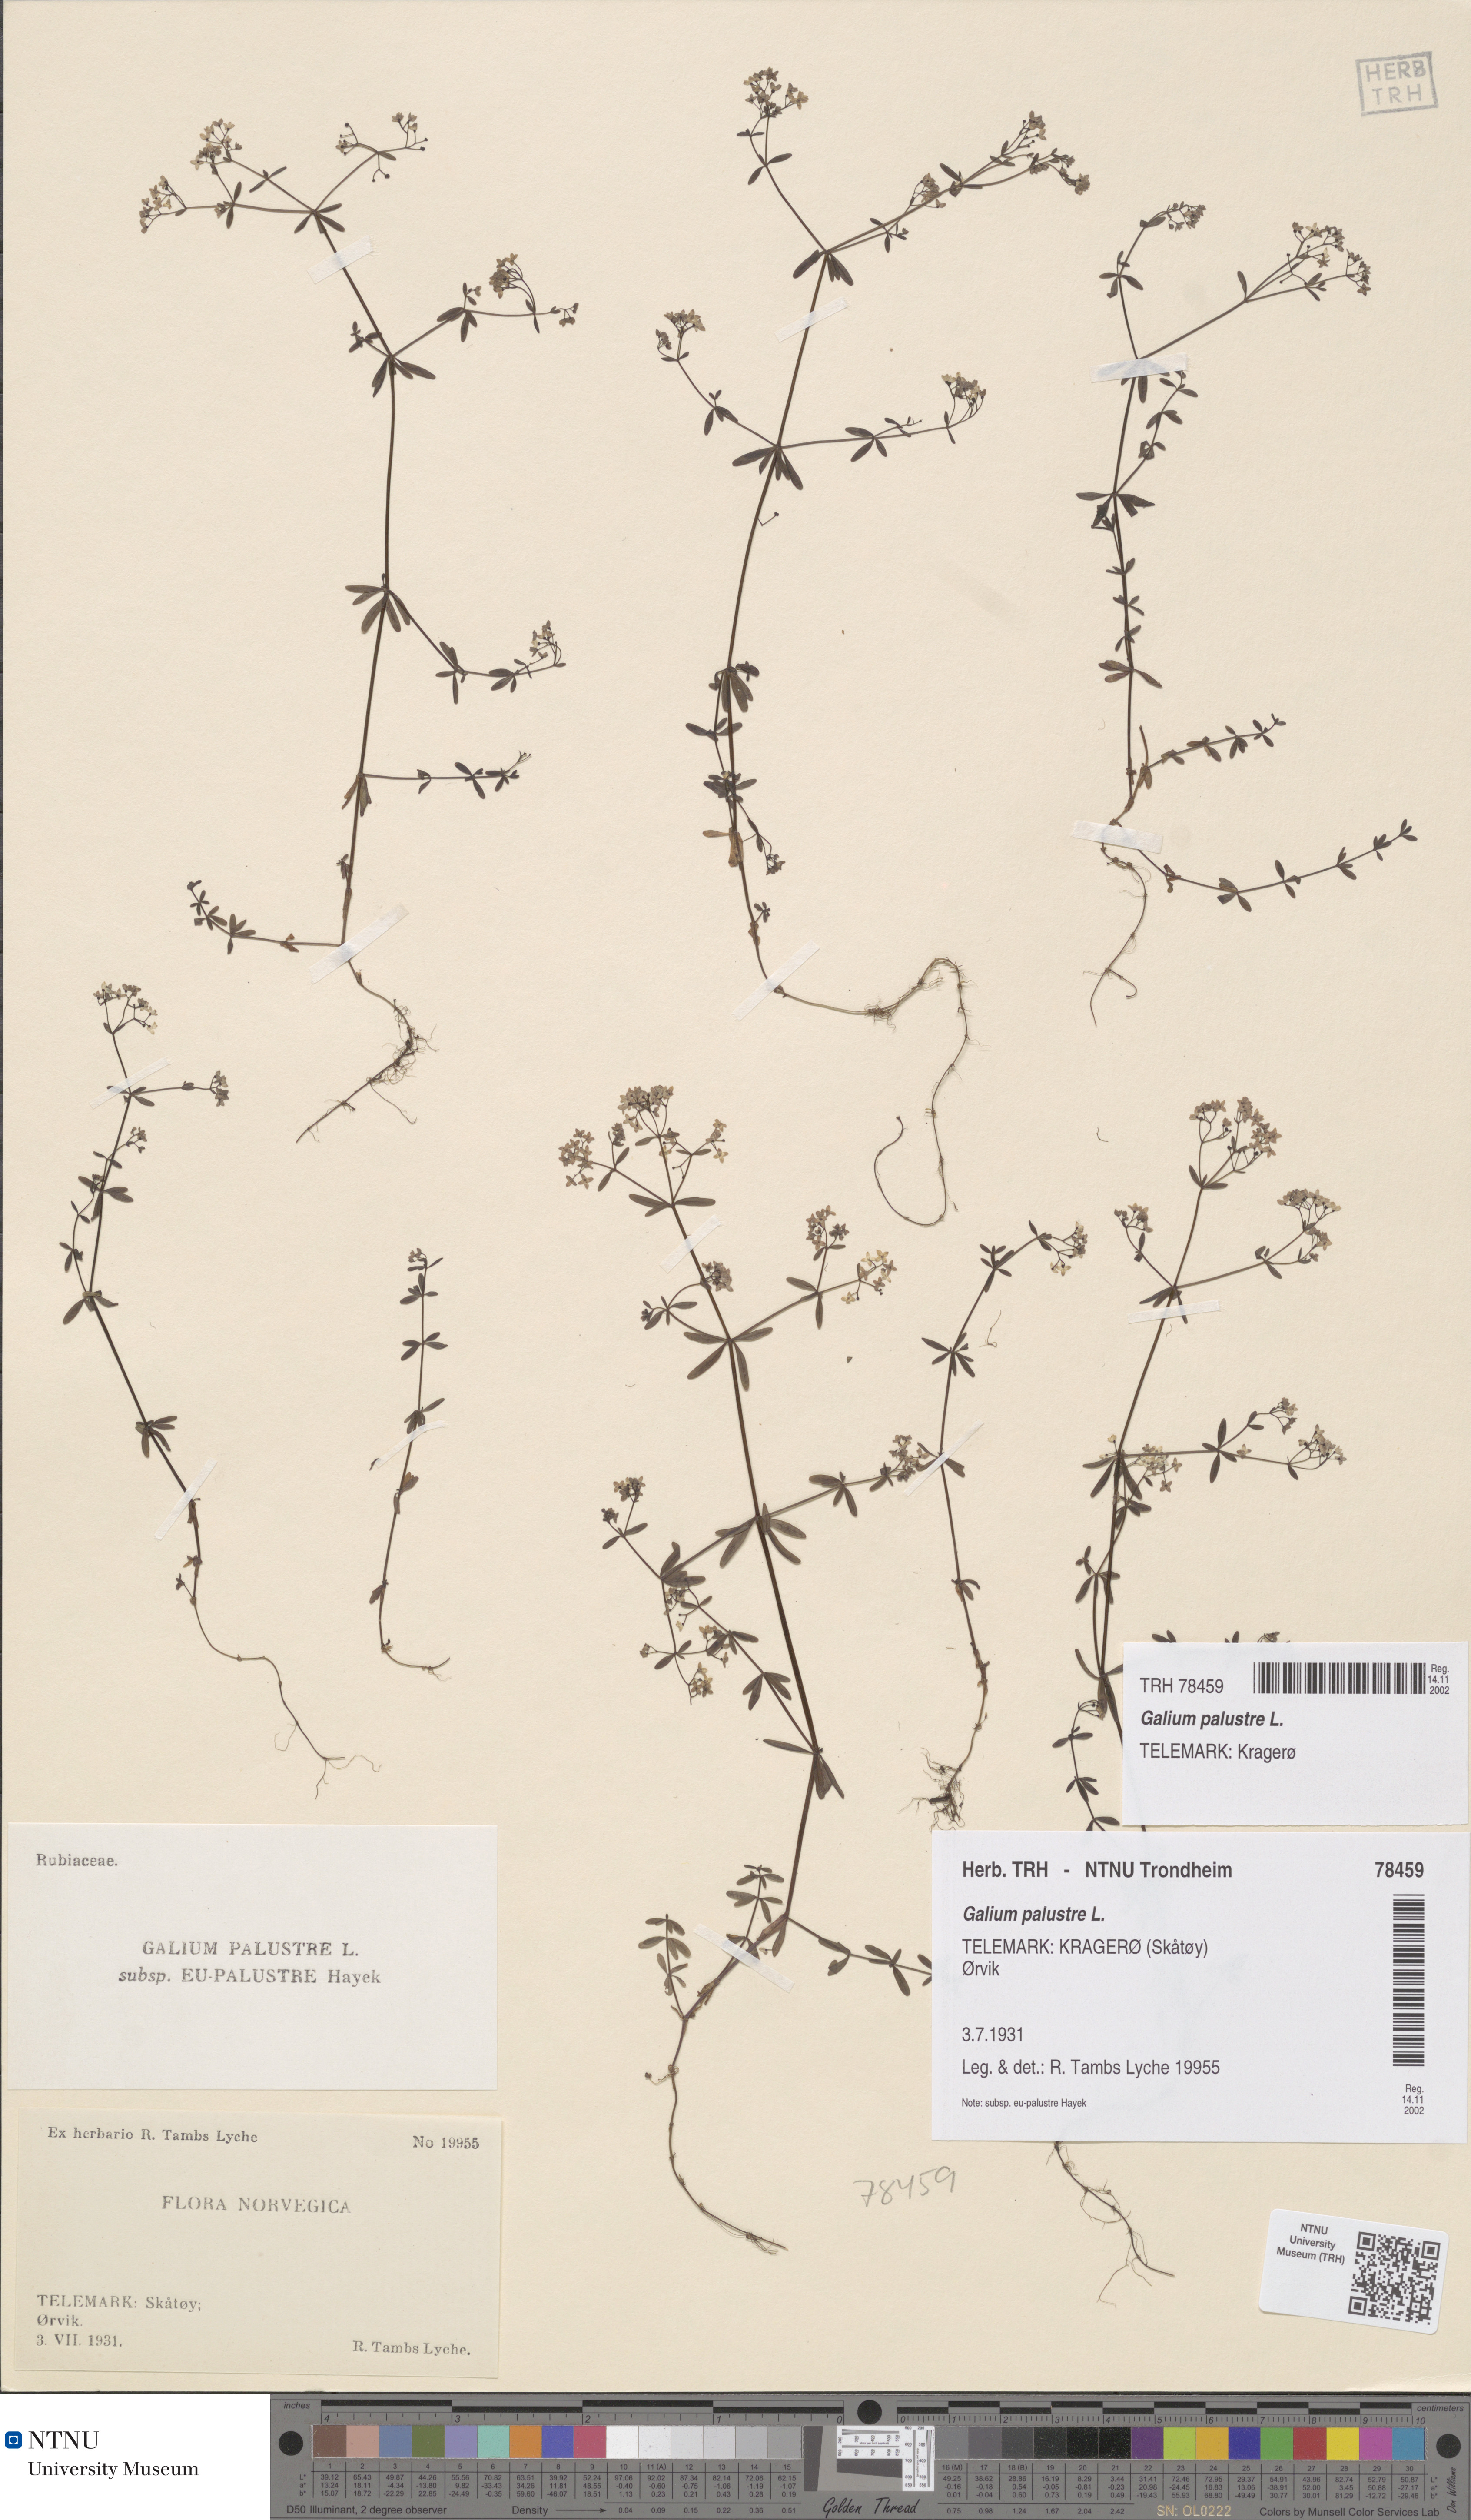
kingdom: Plantae
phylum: Tracheophyta
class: Magnoliopsida
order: Gentianales
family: Rubiaceae
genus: Galium
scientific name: Galium palustre
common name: Common marsh-bedstraw
